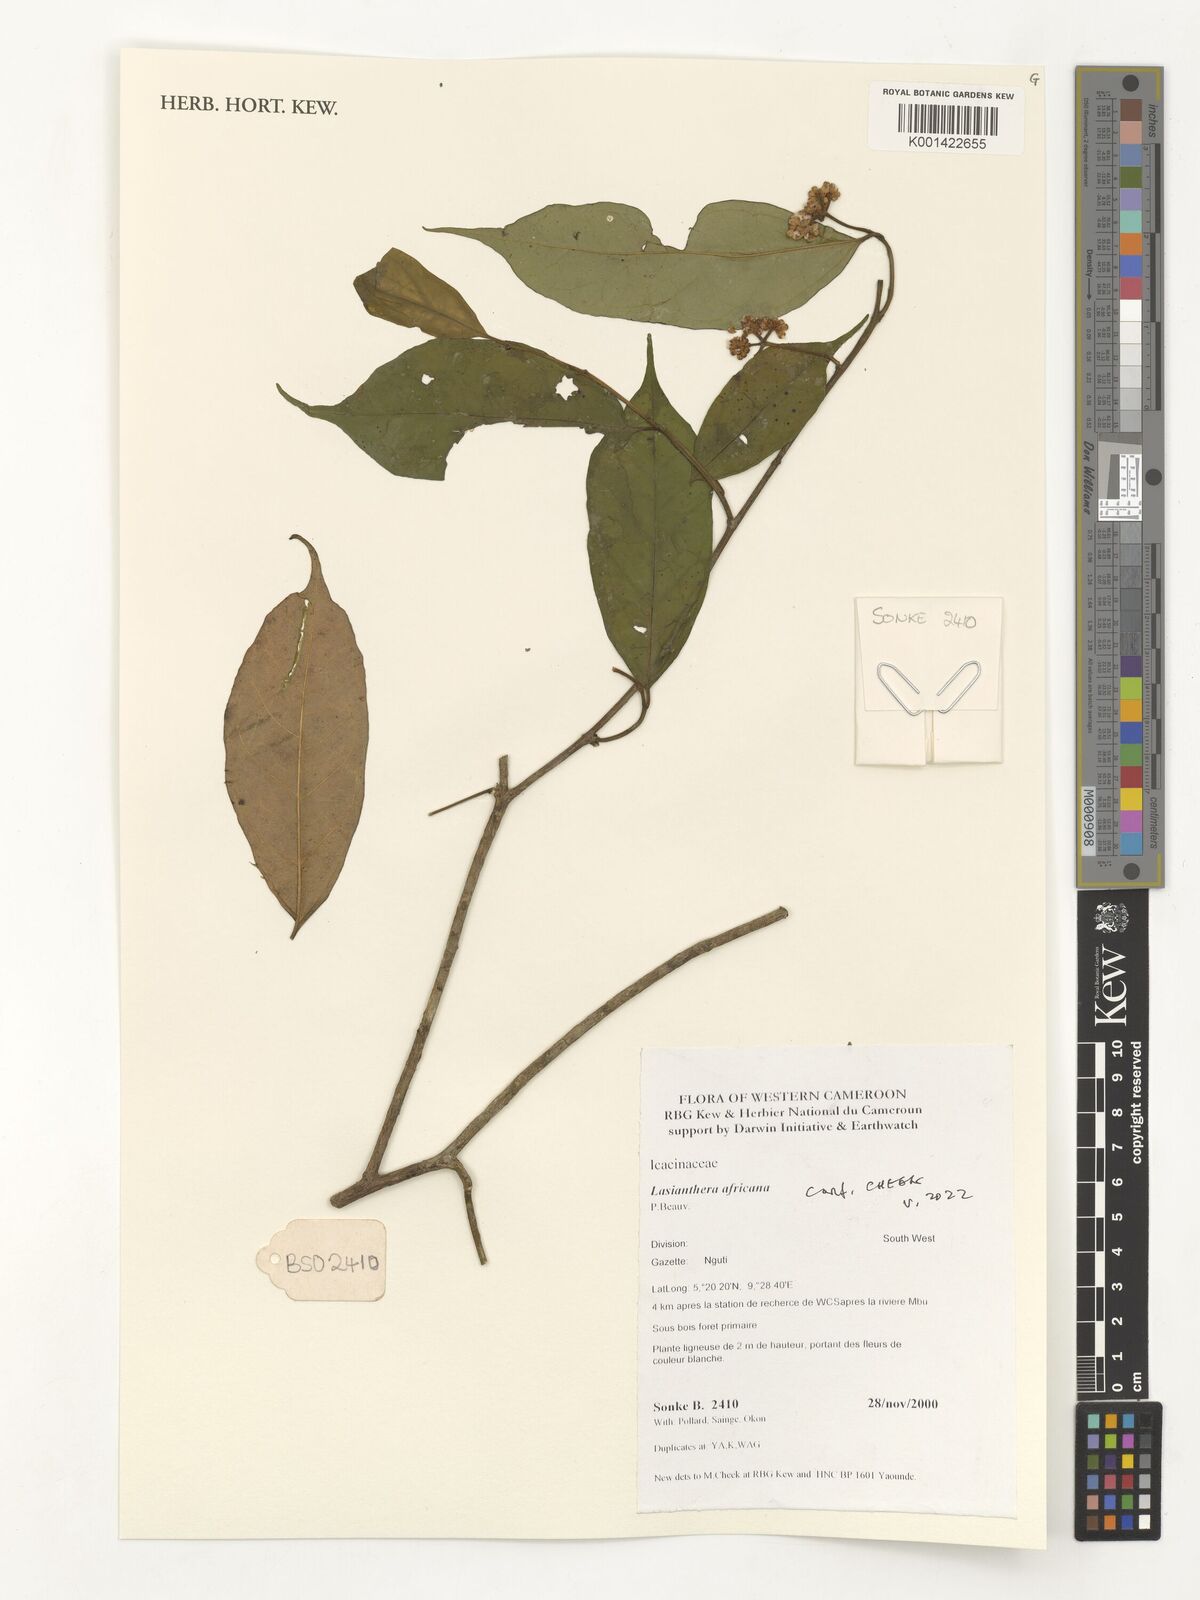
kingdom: Plantae
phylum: Tracheophyta
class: Magnoliopsida
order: Cardiopteridales
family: Stemonuraceae
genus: Lasianthera
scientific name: Lasianthera africana
